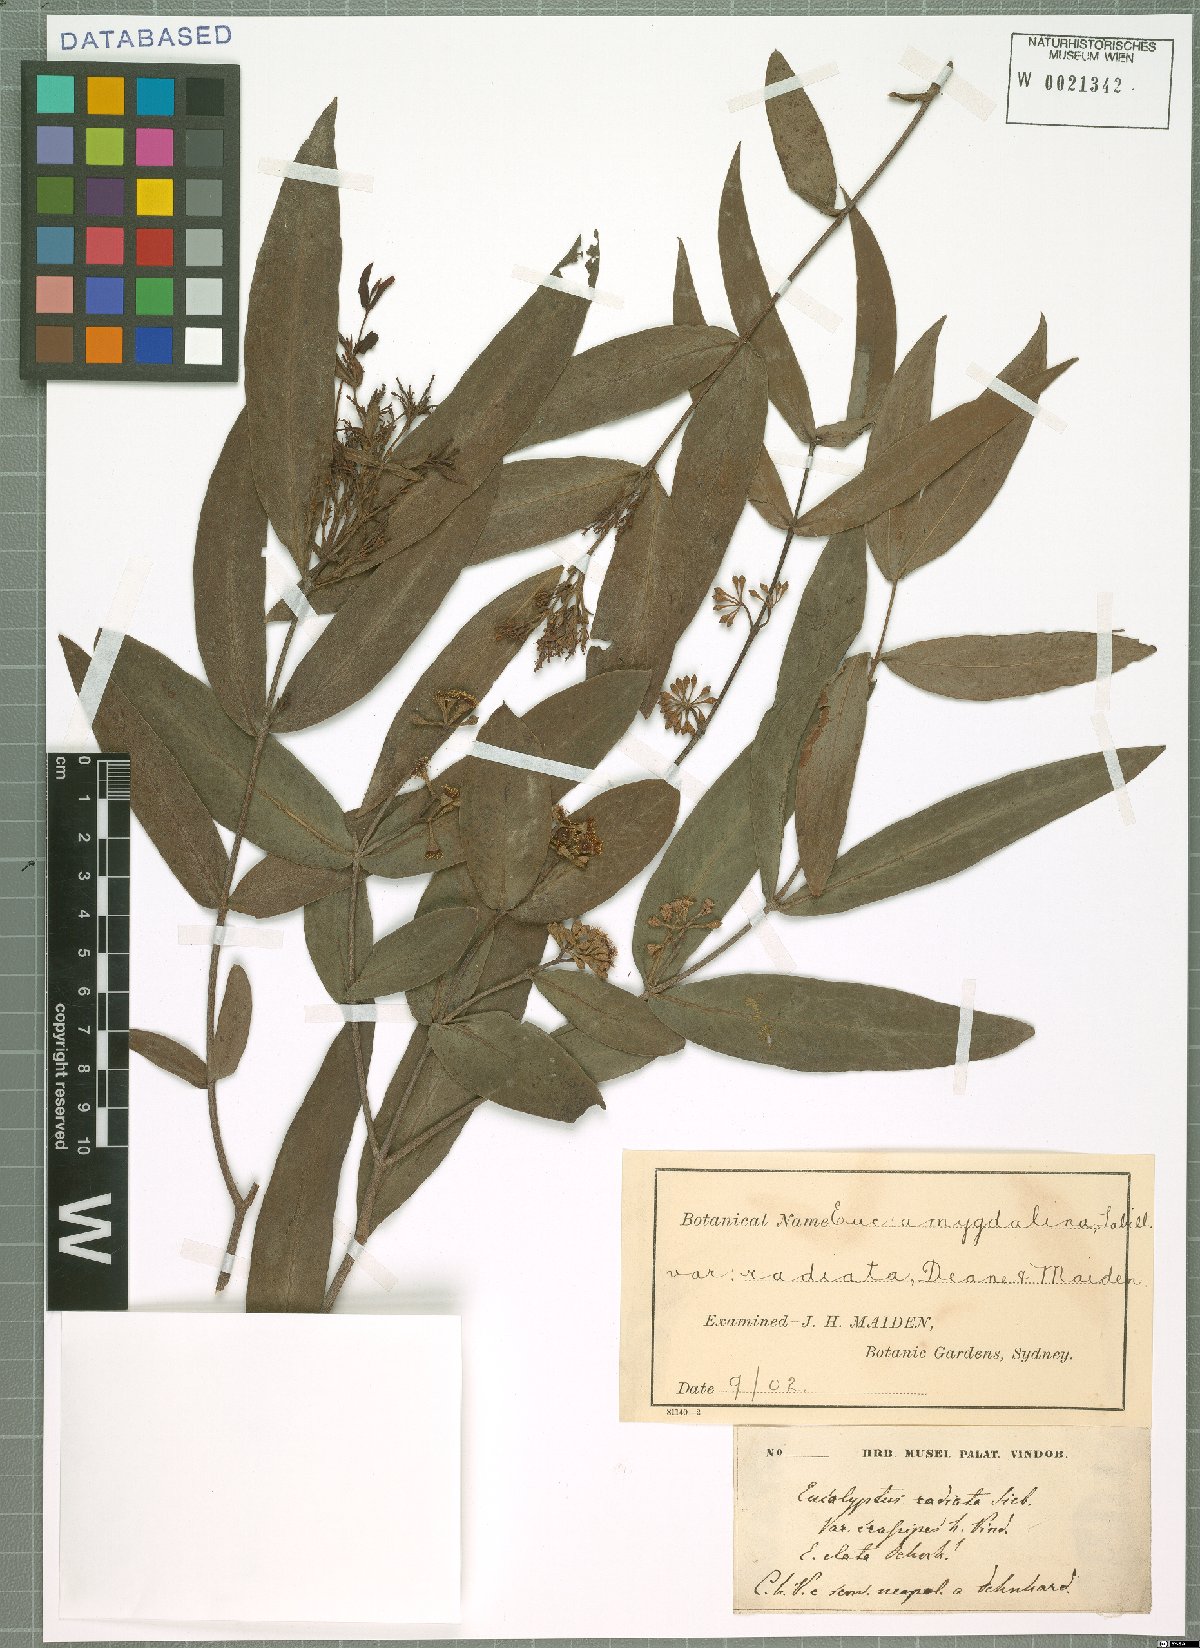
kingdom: Plantae
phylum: Tracheophyta
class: Magnoliopsida
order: Myrtales
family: Myrtaceae
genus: Eucalyptus
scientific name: Eucalyptus radiata
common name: Narrow-leaved-peppermint
